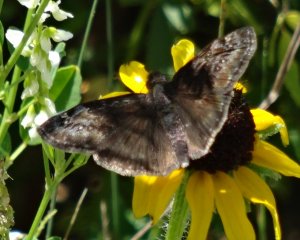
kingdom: Animalia
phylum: Arthropoda
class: Insecta
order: Lepidoptera
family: Hesperiidae
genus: Gesta
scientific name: Gesta
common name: Wild Indigo Duskywing
